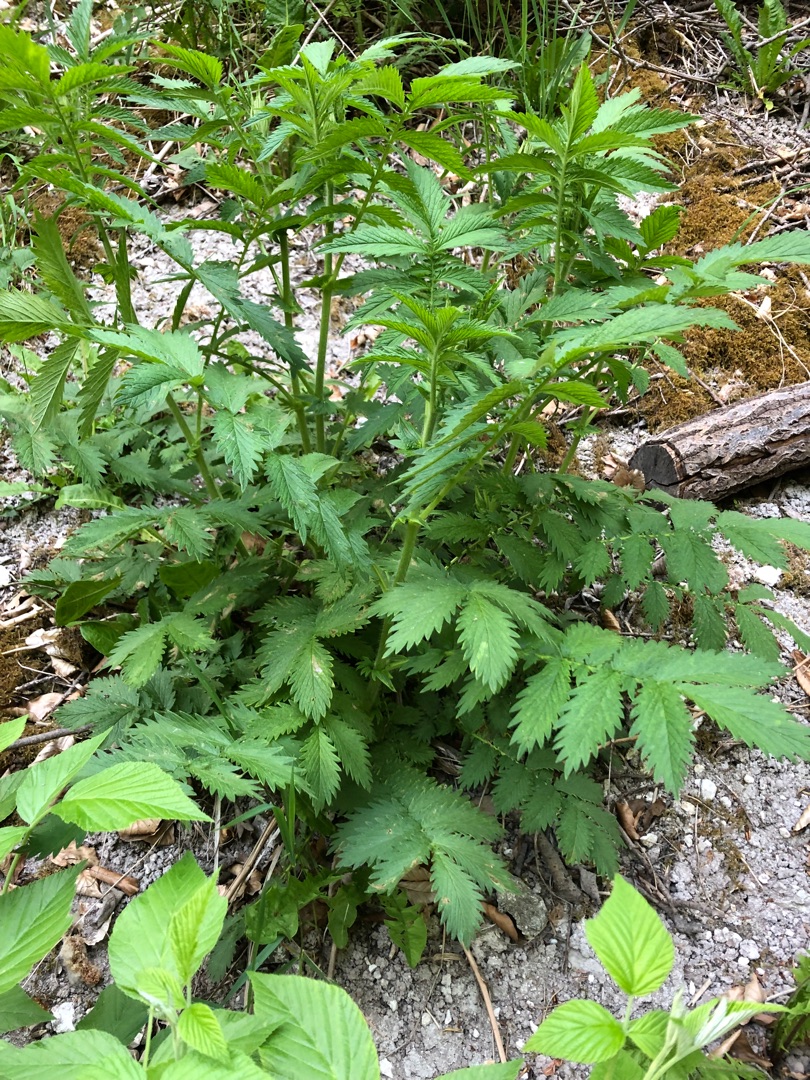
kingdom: Plantae
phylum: Tracheophyta
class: Magnoliopsida
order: Rosales
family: Rosaceae
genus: Agrimonia
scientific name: Agrimonia eupatoria
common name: Almindelig agermåne
